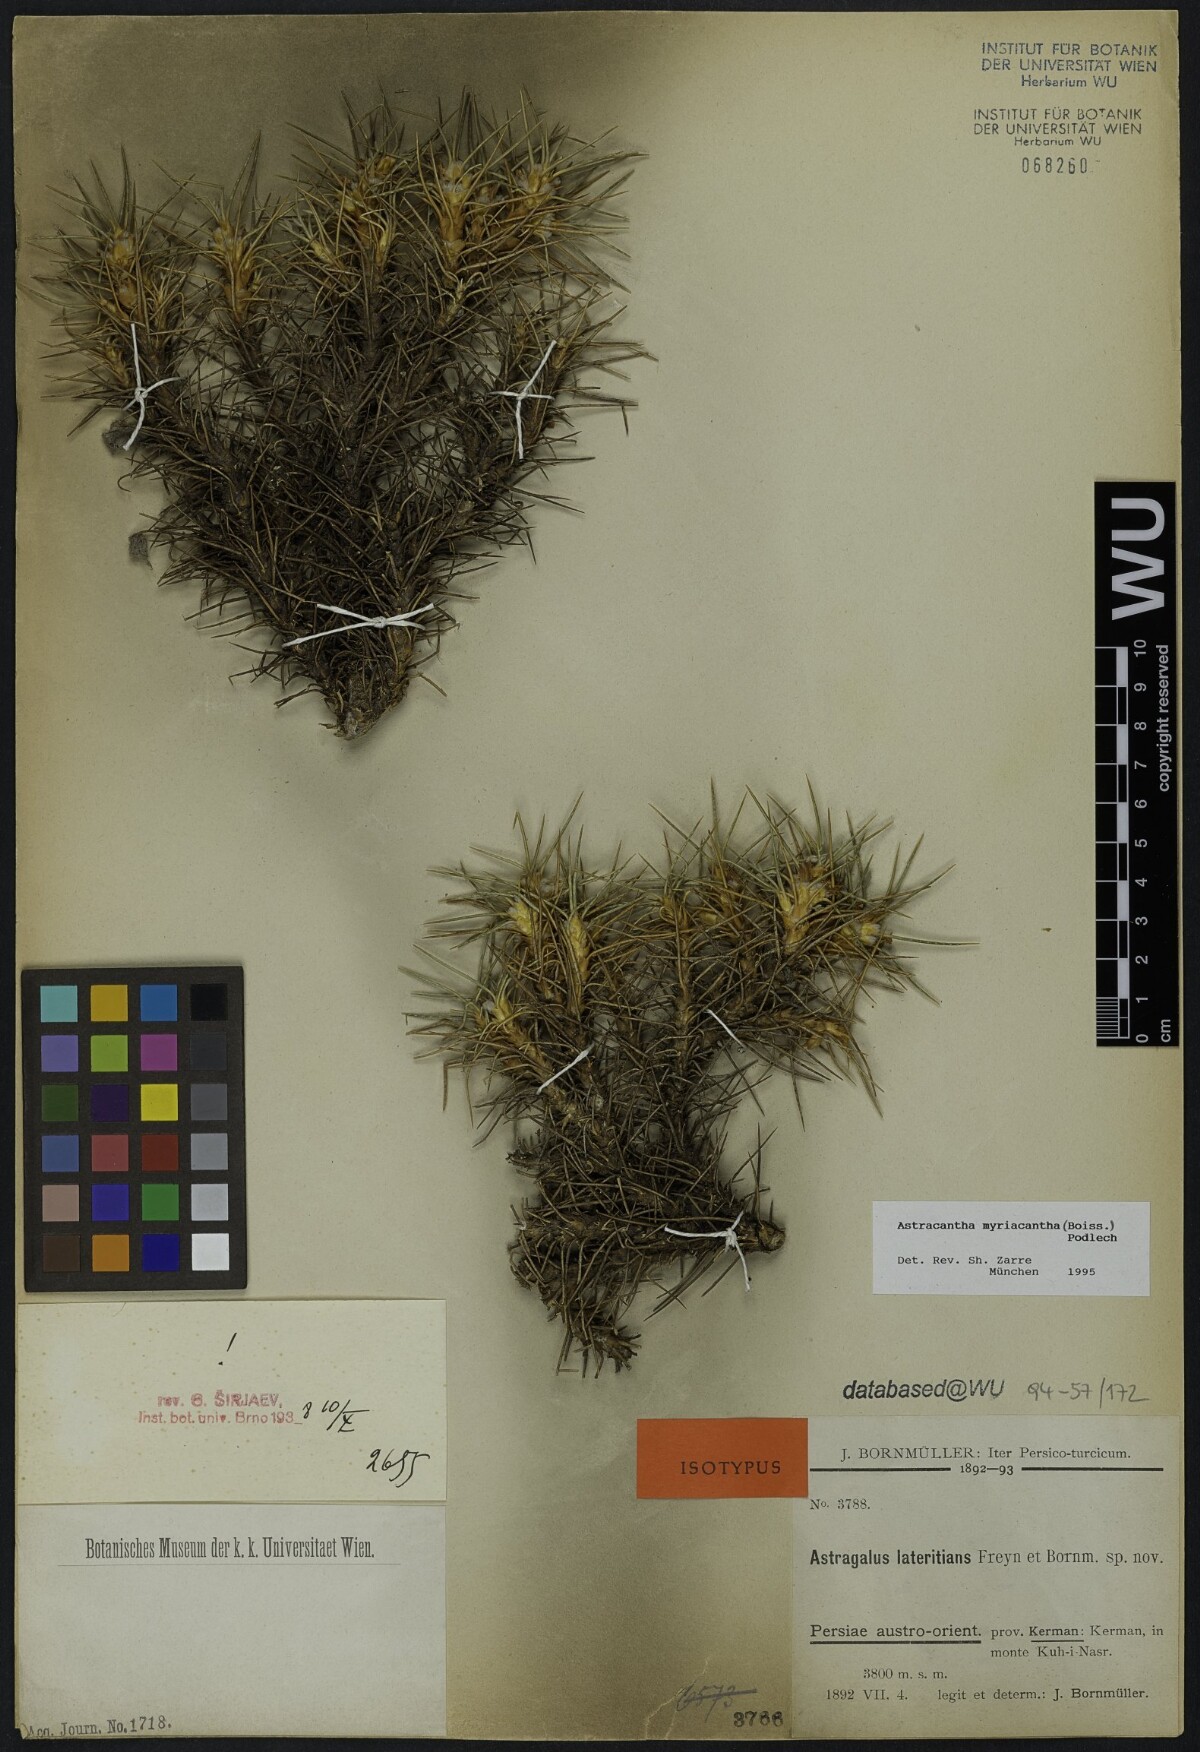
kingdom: Plantae
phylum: Tracheophyta
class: Magnoliopsida
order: Fabales
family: Fabaceae
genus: Astragalus
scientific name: Astragalus myriacanthus
